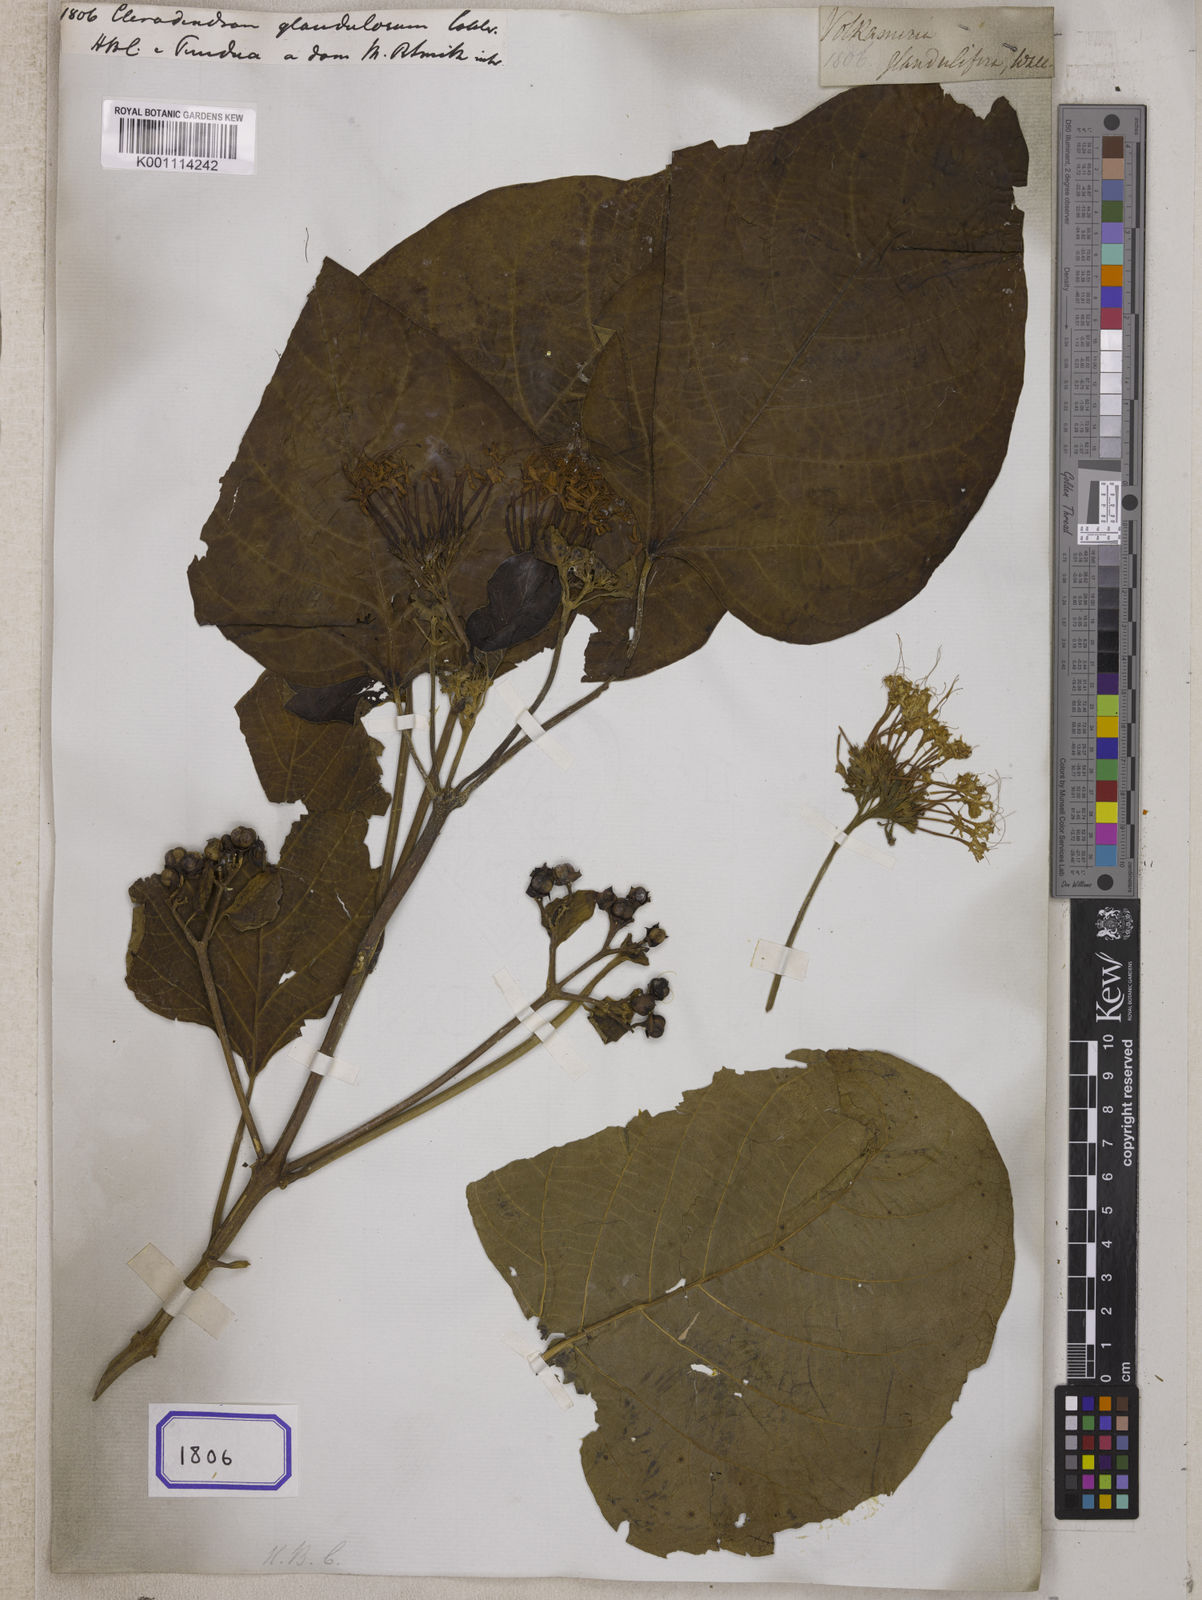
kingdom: Plantae
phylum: Tracheophyta
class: Magnoliopsida
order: Lamiales
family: Lamiaceae
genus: Clerodendrum
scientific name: Clerodendrum
